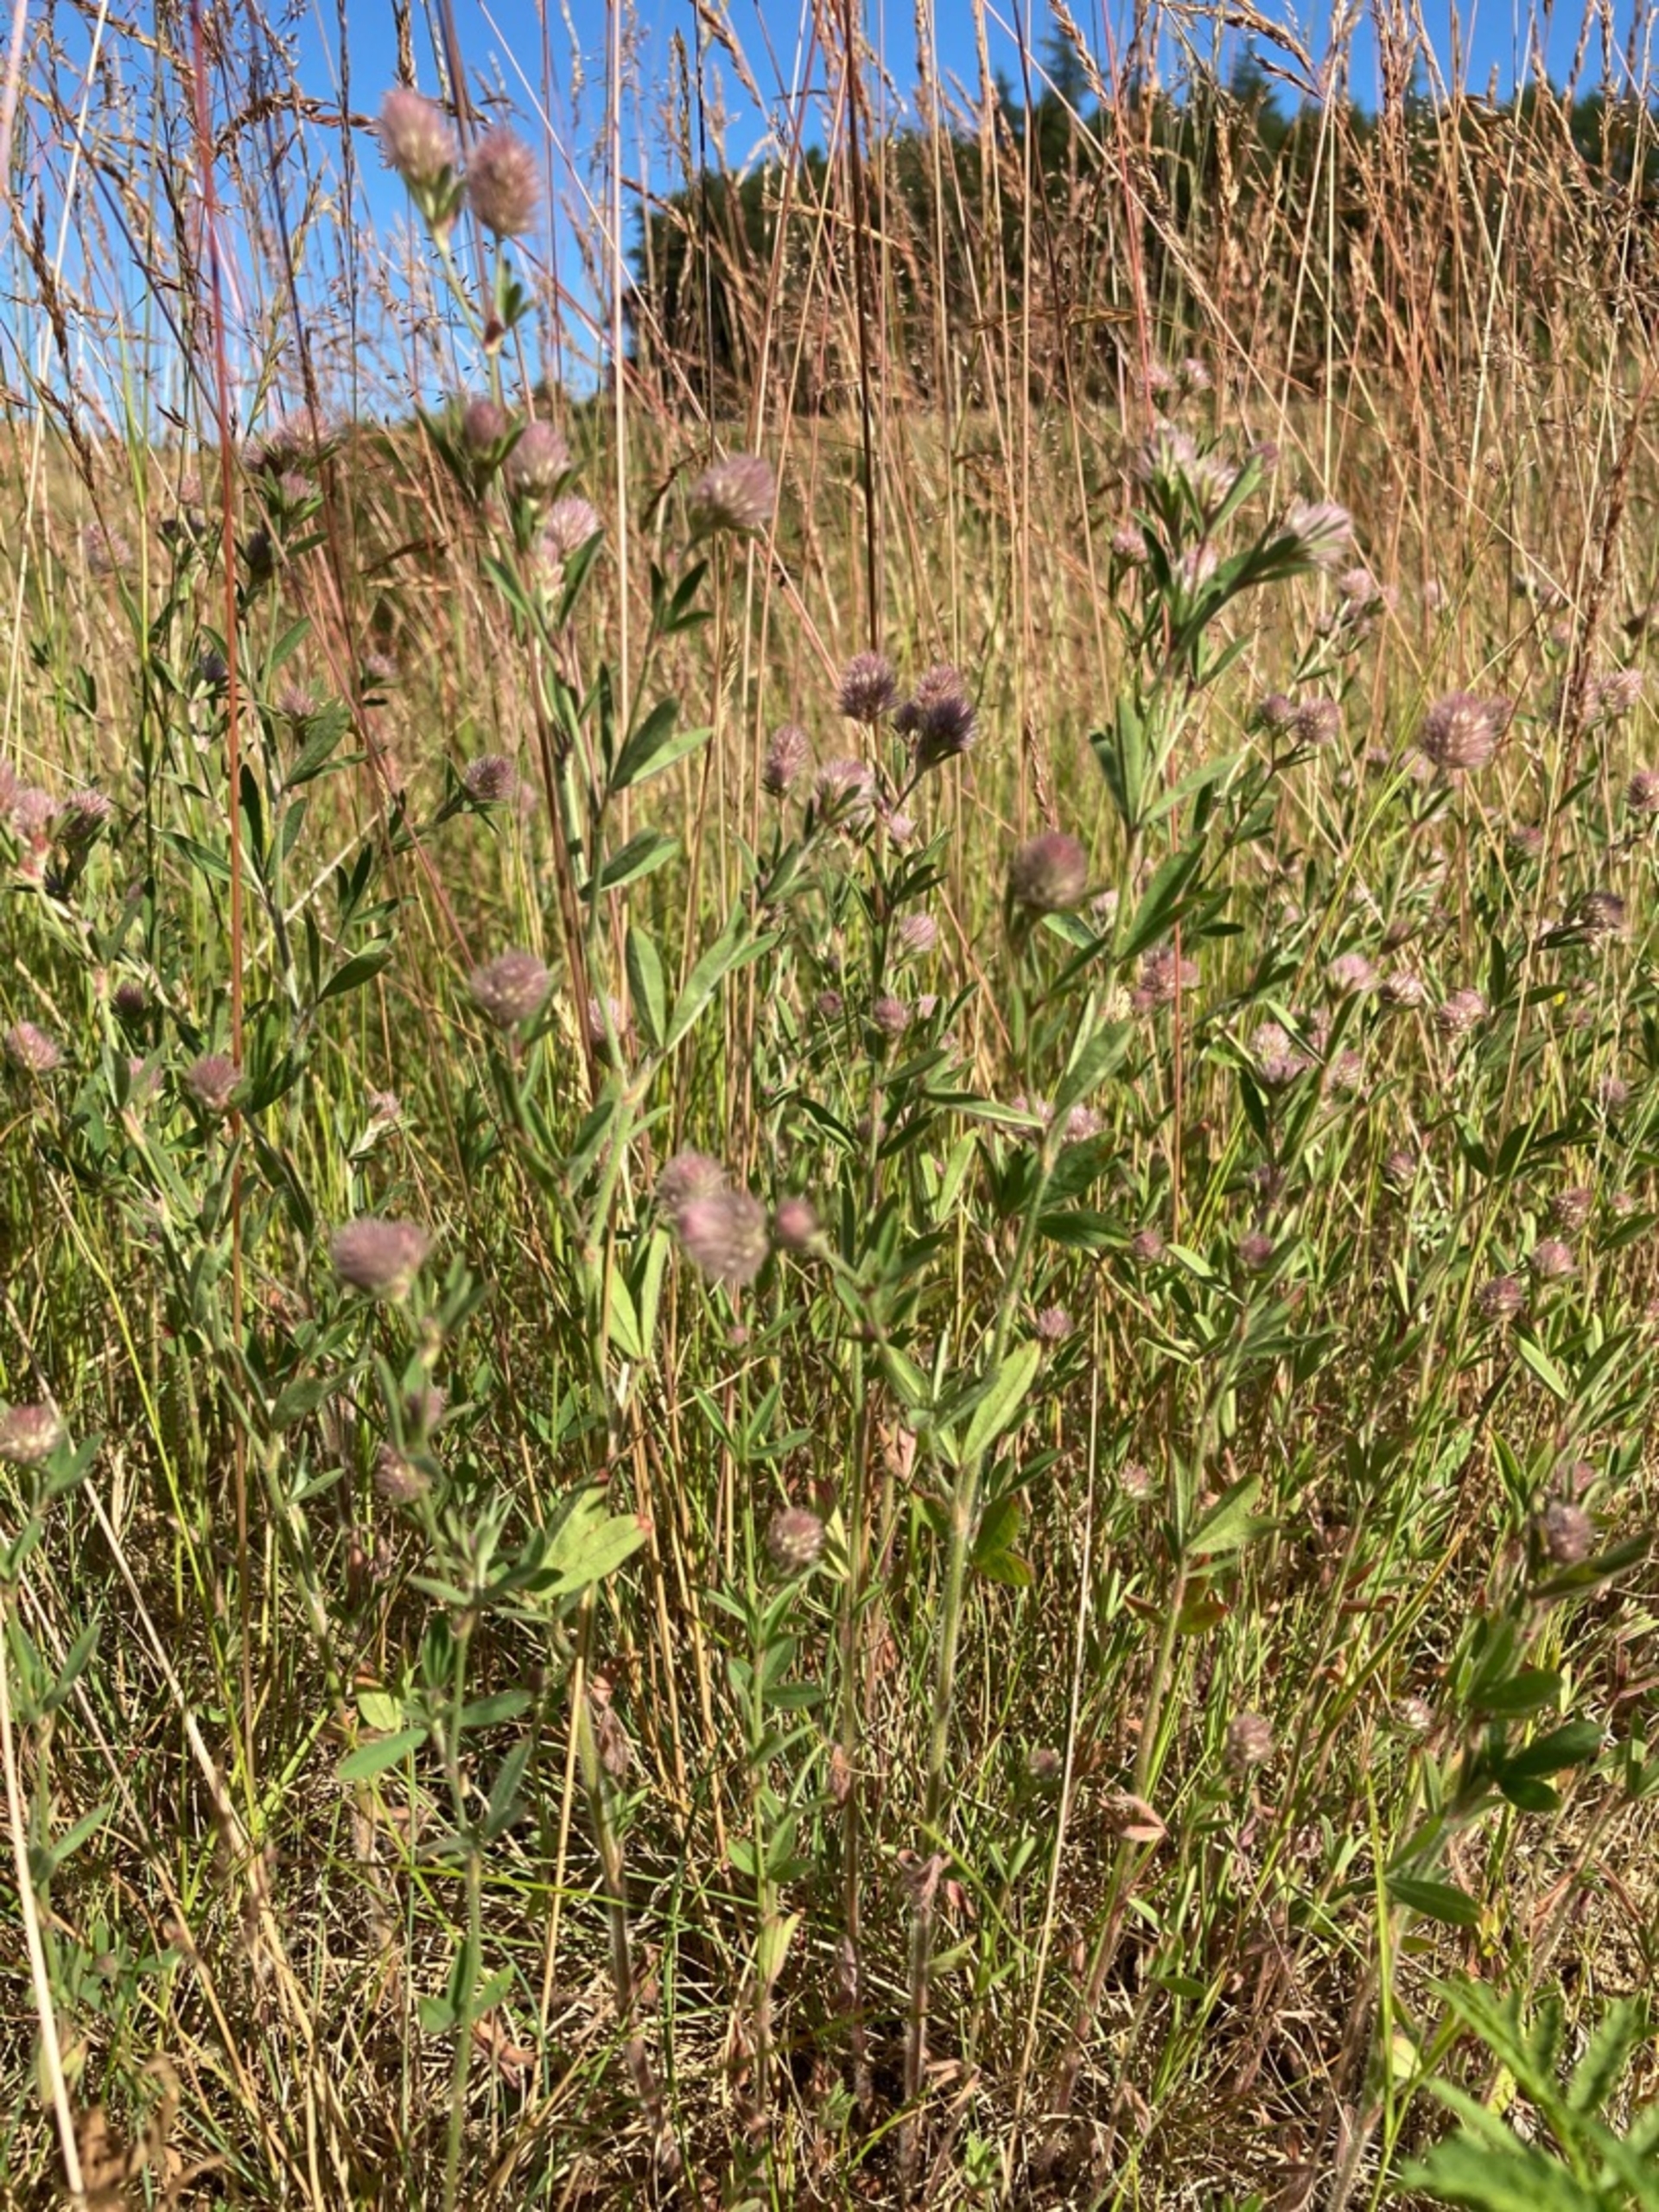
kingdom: Plantae
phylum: Tracheophyta
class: Magnoliopsida
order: Fabales
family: Fabaceae
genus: Trifolium
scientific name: Trifolium arvense
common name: Hare-kløver
